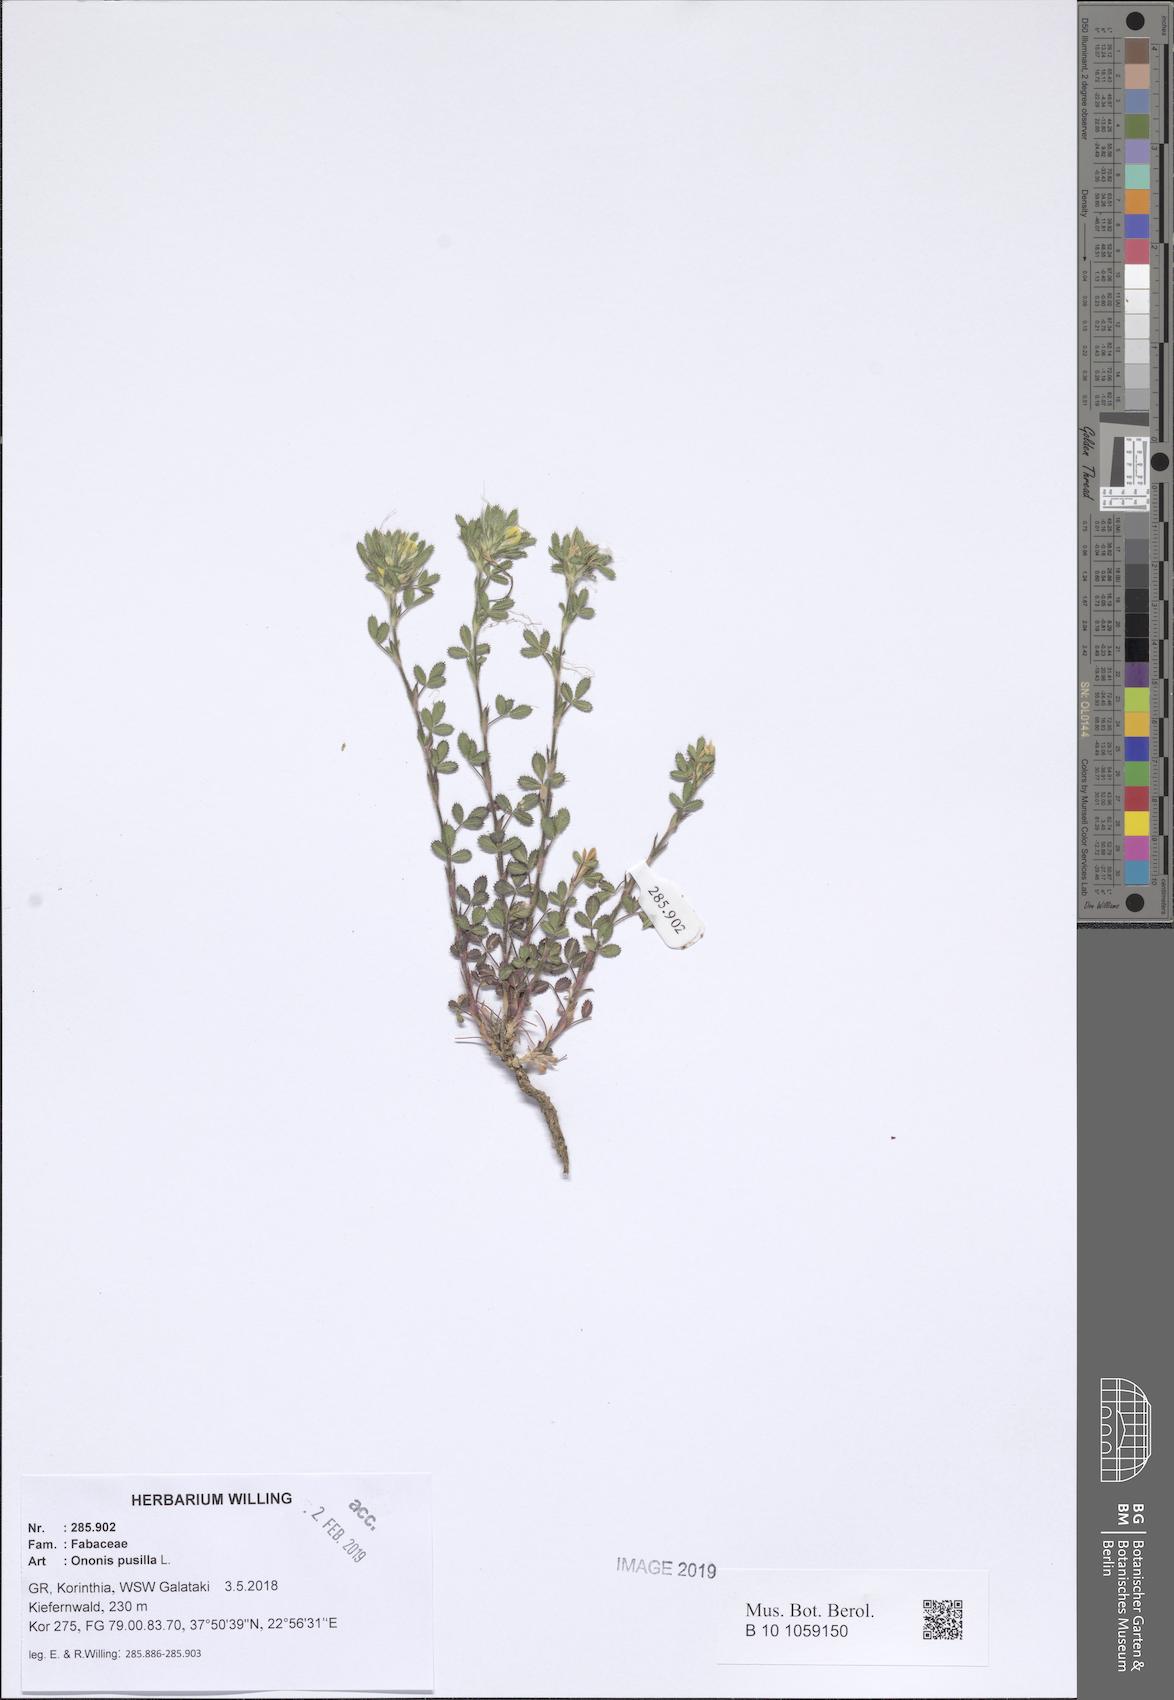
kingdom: Plantae
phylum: Tracheophyta
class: Magnoliopsida
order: Fabales
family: Fabaceae
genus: Ononis
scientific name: Ononis pusilla
